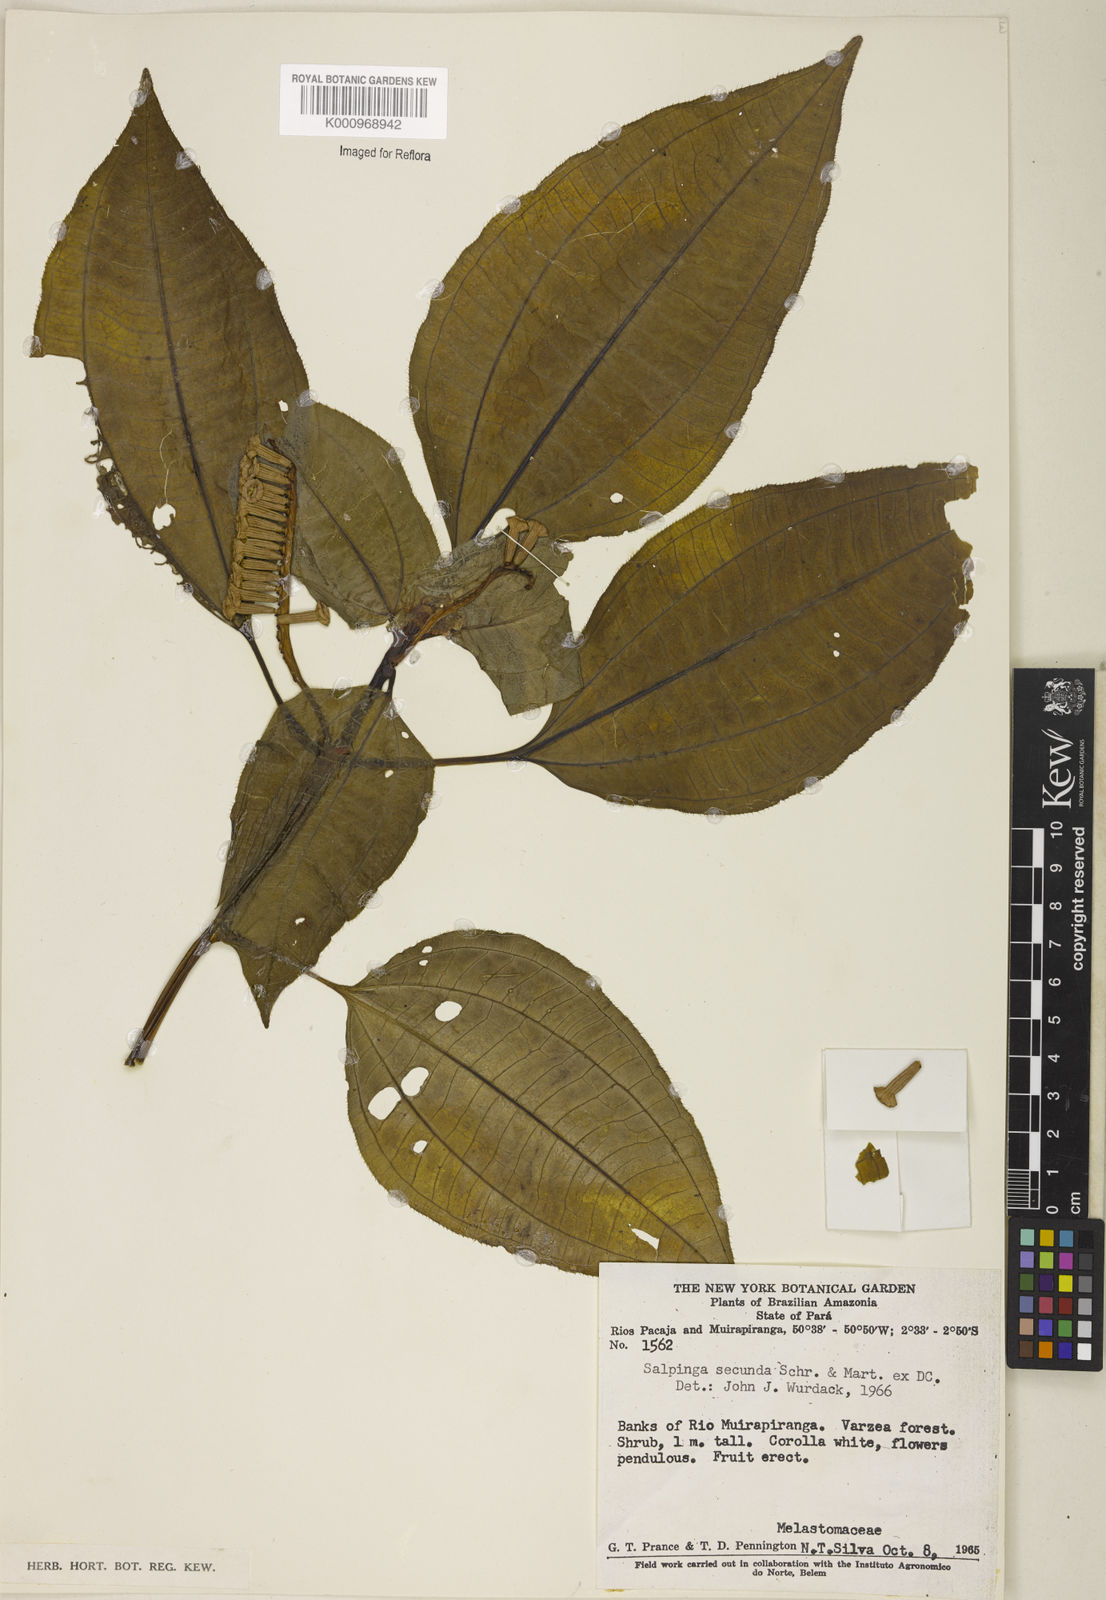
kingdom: Plantae
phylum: Tracheophyta
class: Magnoliopsida
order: Myrtales
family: Melastomataceae
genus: Salpinga
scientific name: Salpinga secunda
